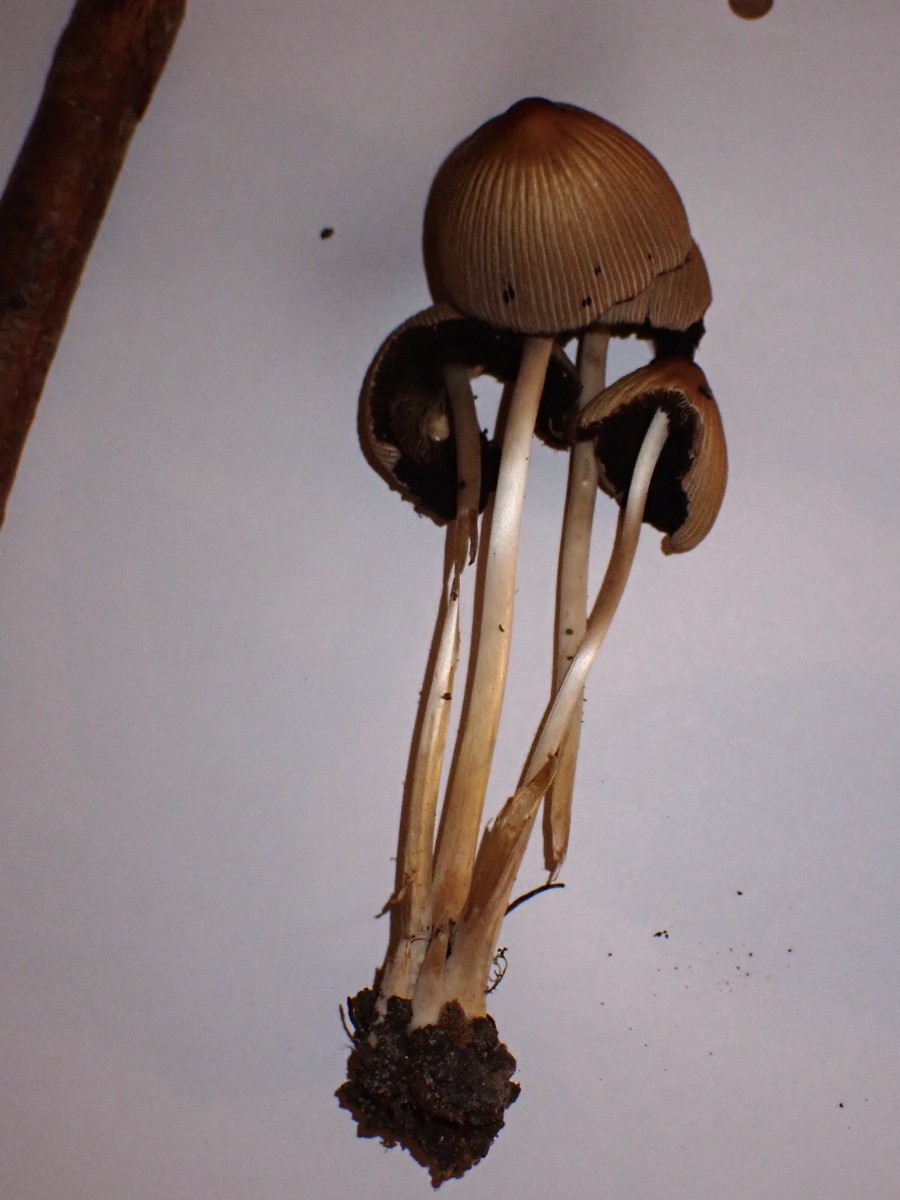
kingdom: Fungi
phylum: Basidiomycota
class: Agaricomycetes
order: Agaricales
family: Psathyrellaceae
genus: Coprinellus
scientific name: Coprinellus micaceus
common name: glimmer-blækhat
